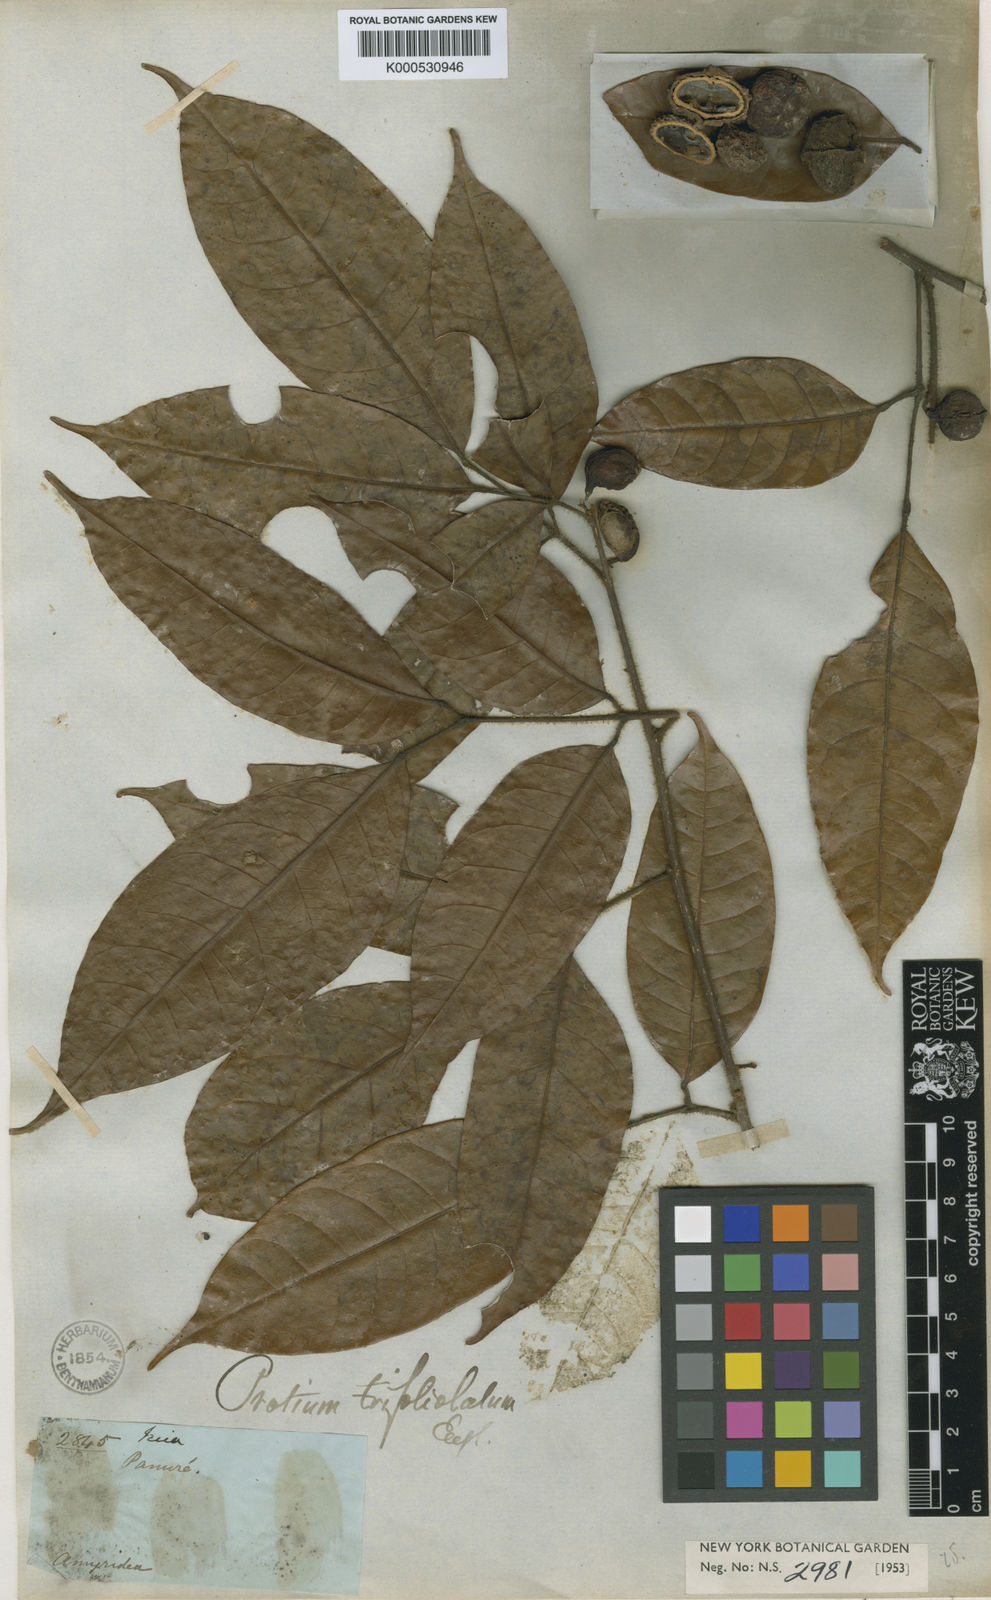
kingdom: Plantae
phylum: Tracheophyta
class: Magnoliopsida
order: Sapindales
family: Burseraceae
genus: Protium
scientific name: Protium trifoliolatum
